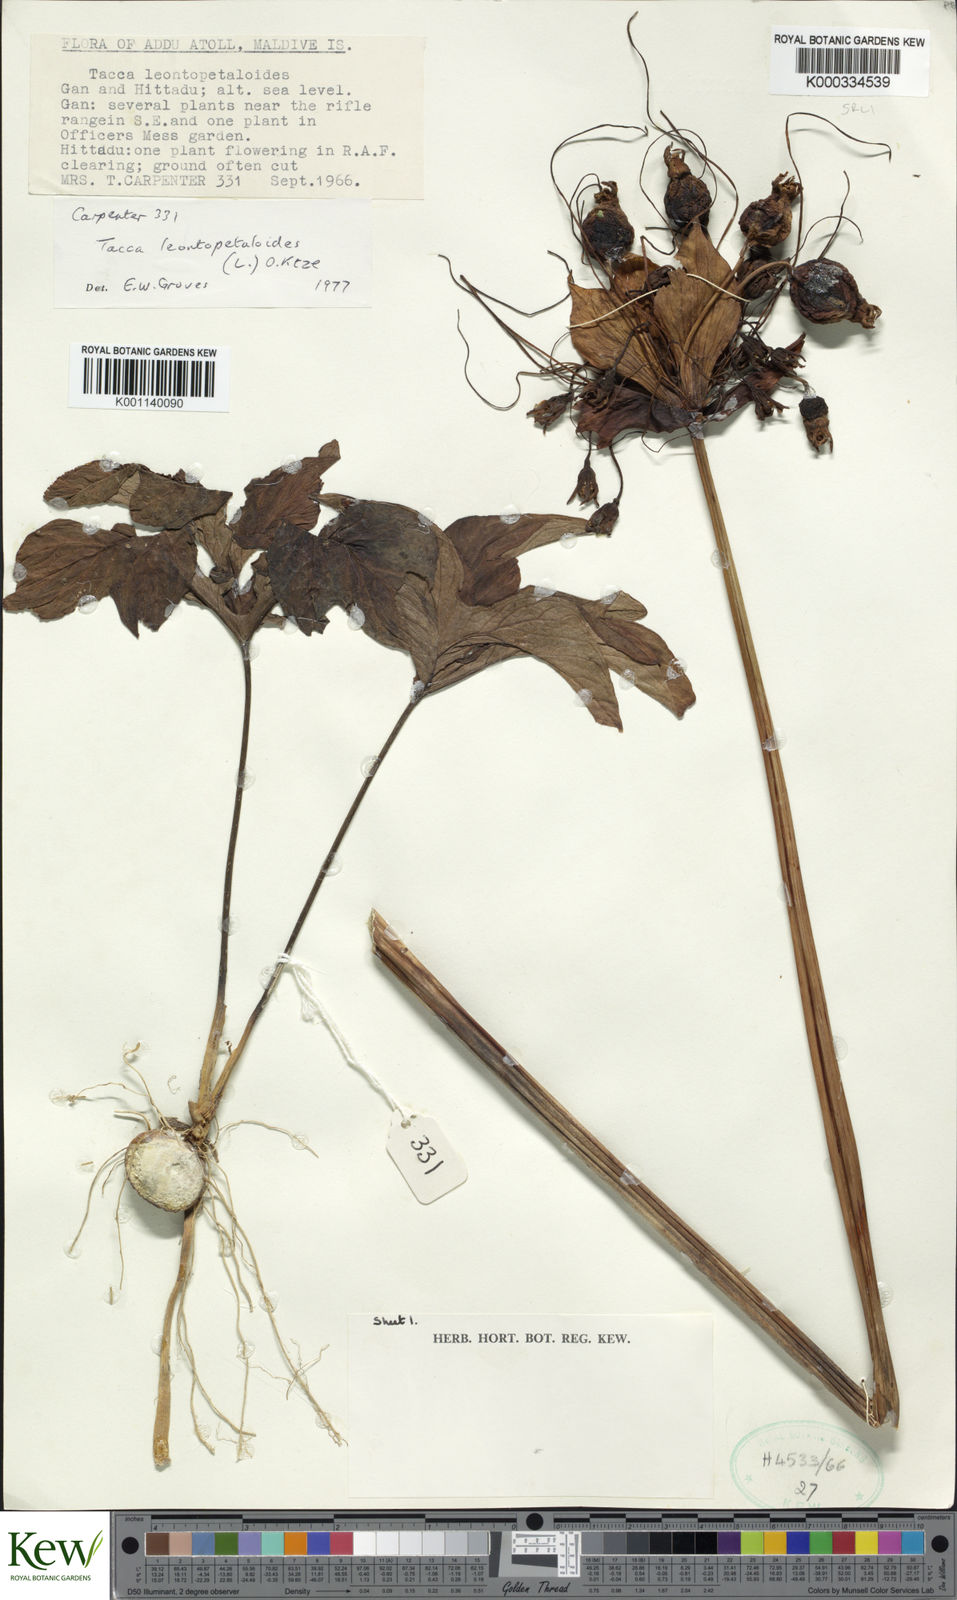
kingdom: Plantae
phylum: Tracheophyta
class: Liliopsida
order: Dioscoreales
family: Dioscoreaceae
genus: Tacca
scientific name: Tacca leontopetaloides
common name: Arrowroot
